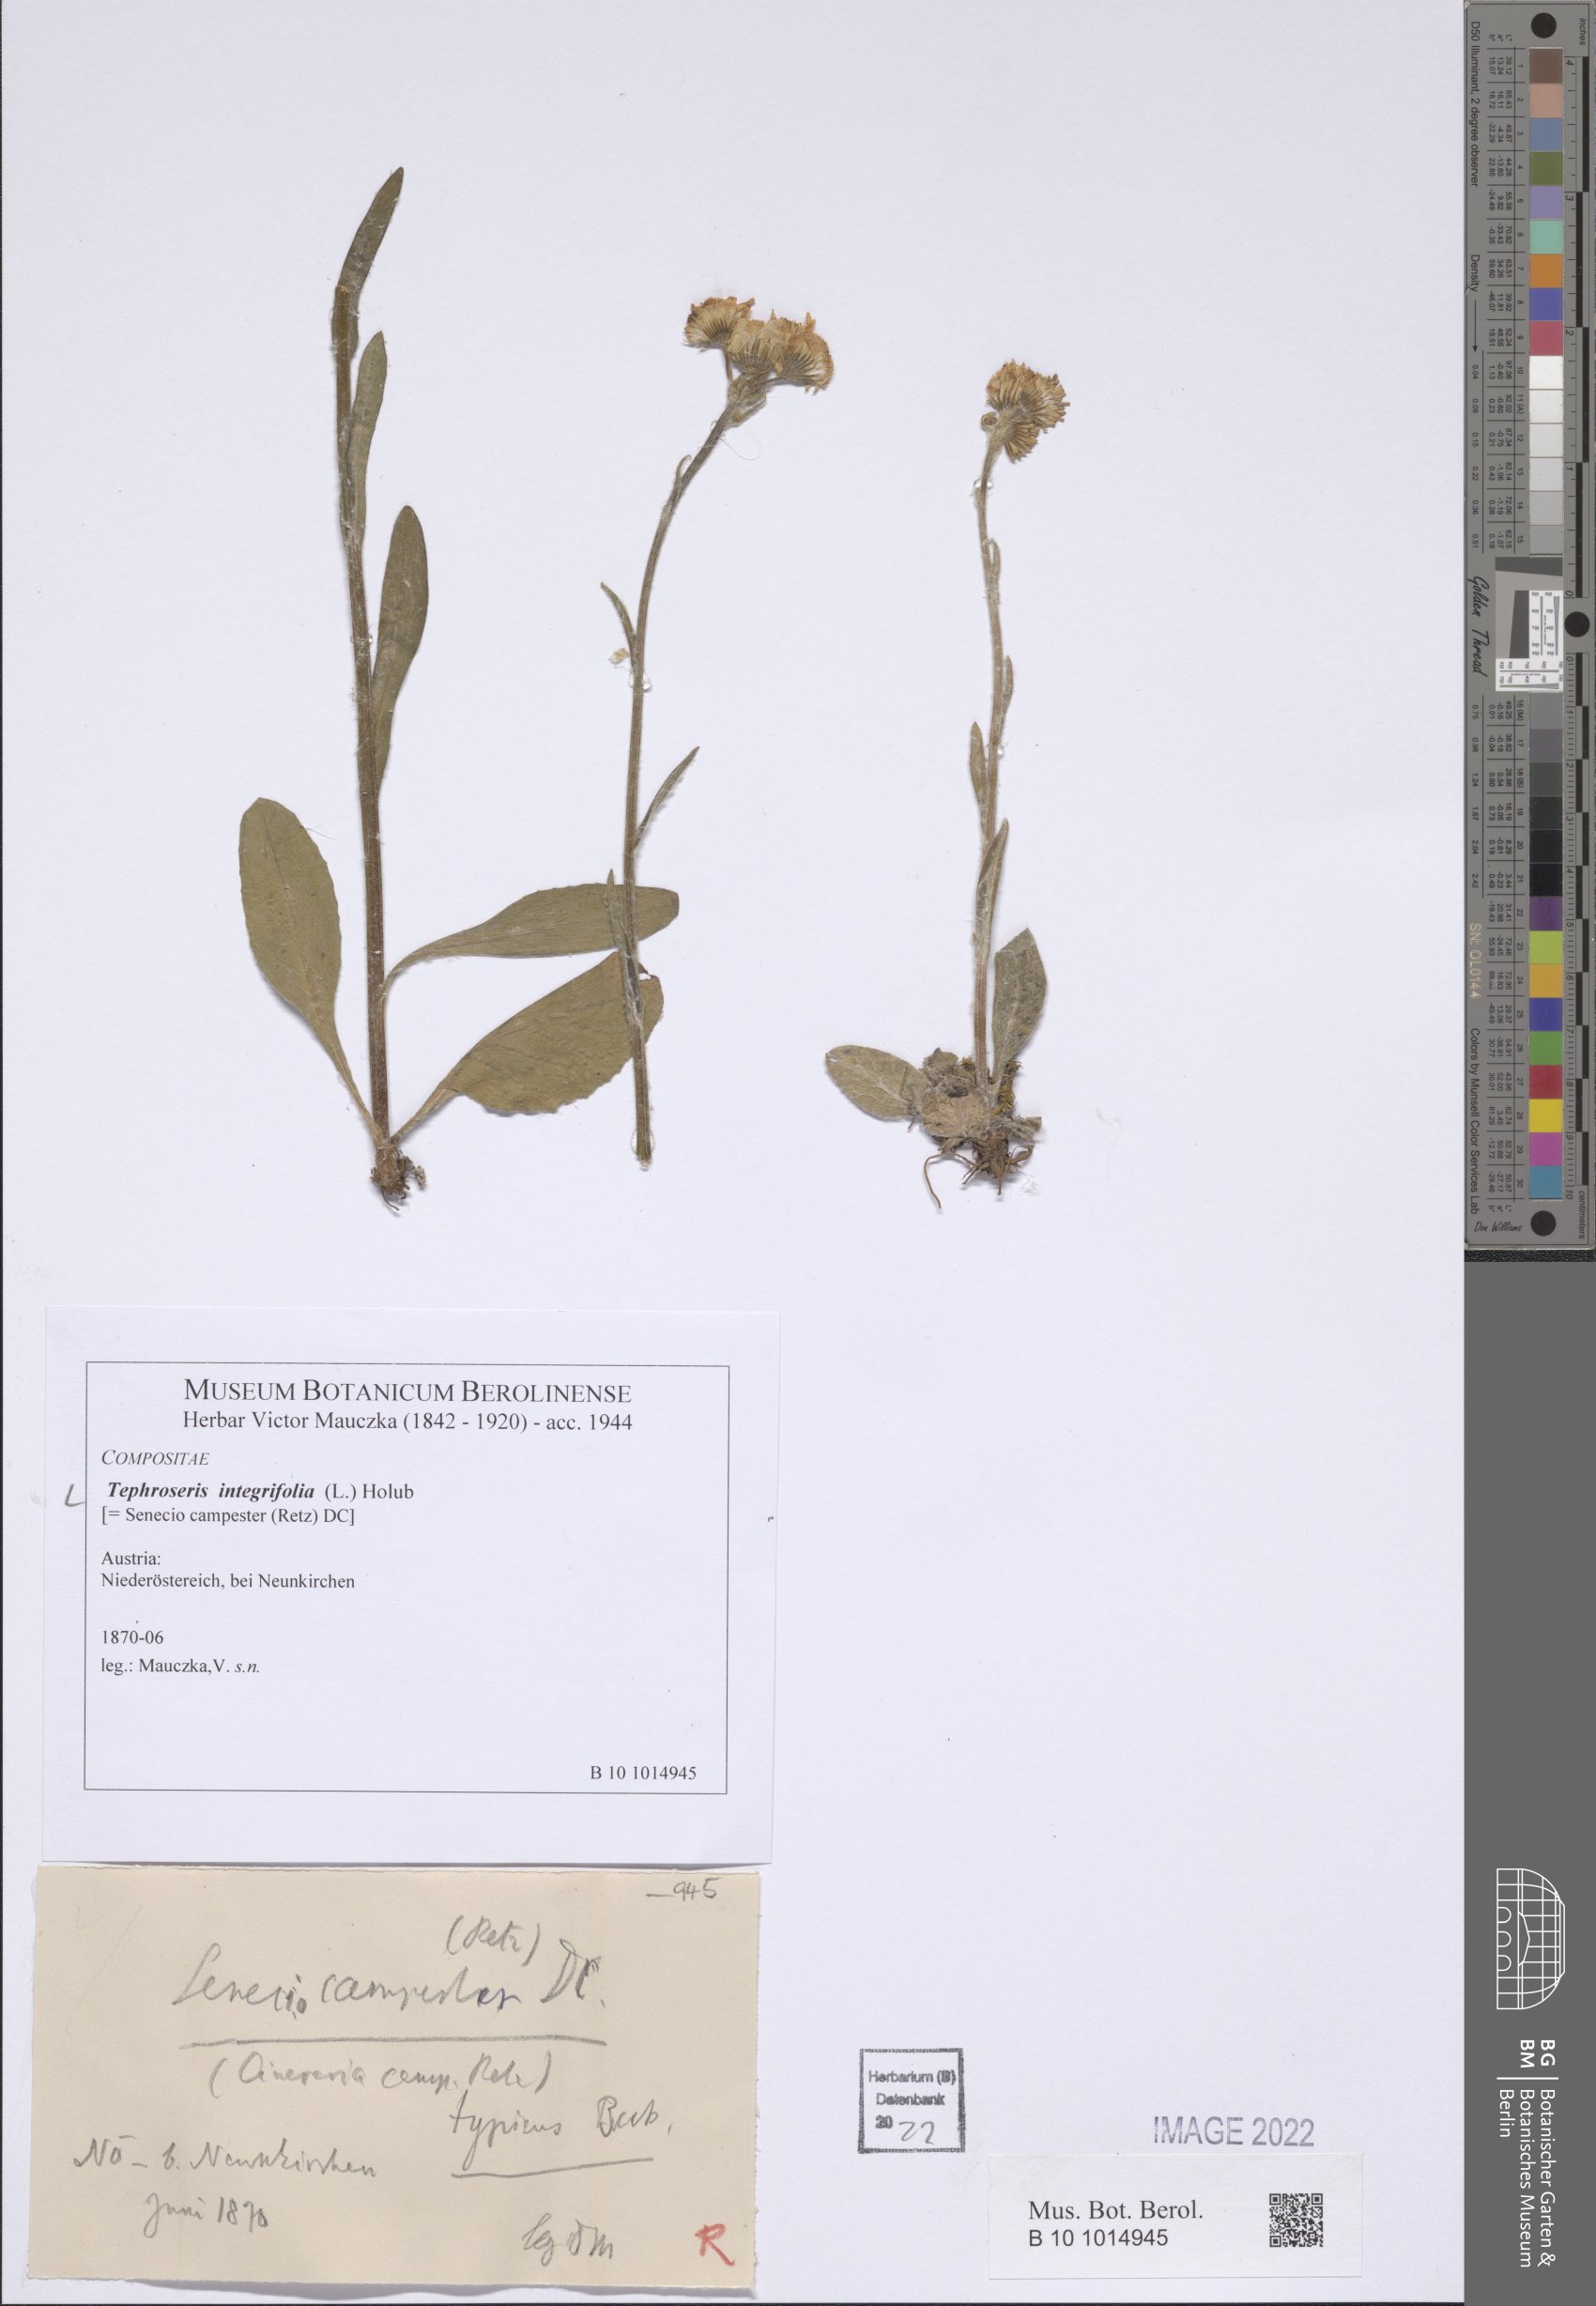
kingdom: Plantae
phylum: Tracheophyta
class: Magnoliopsida
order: Asterales
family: Asteraceae
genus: Tephroseris
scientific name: Tephroseris integrifolia
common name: Field fleawort
